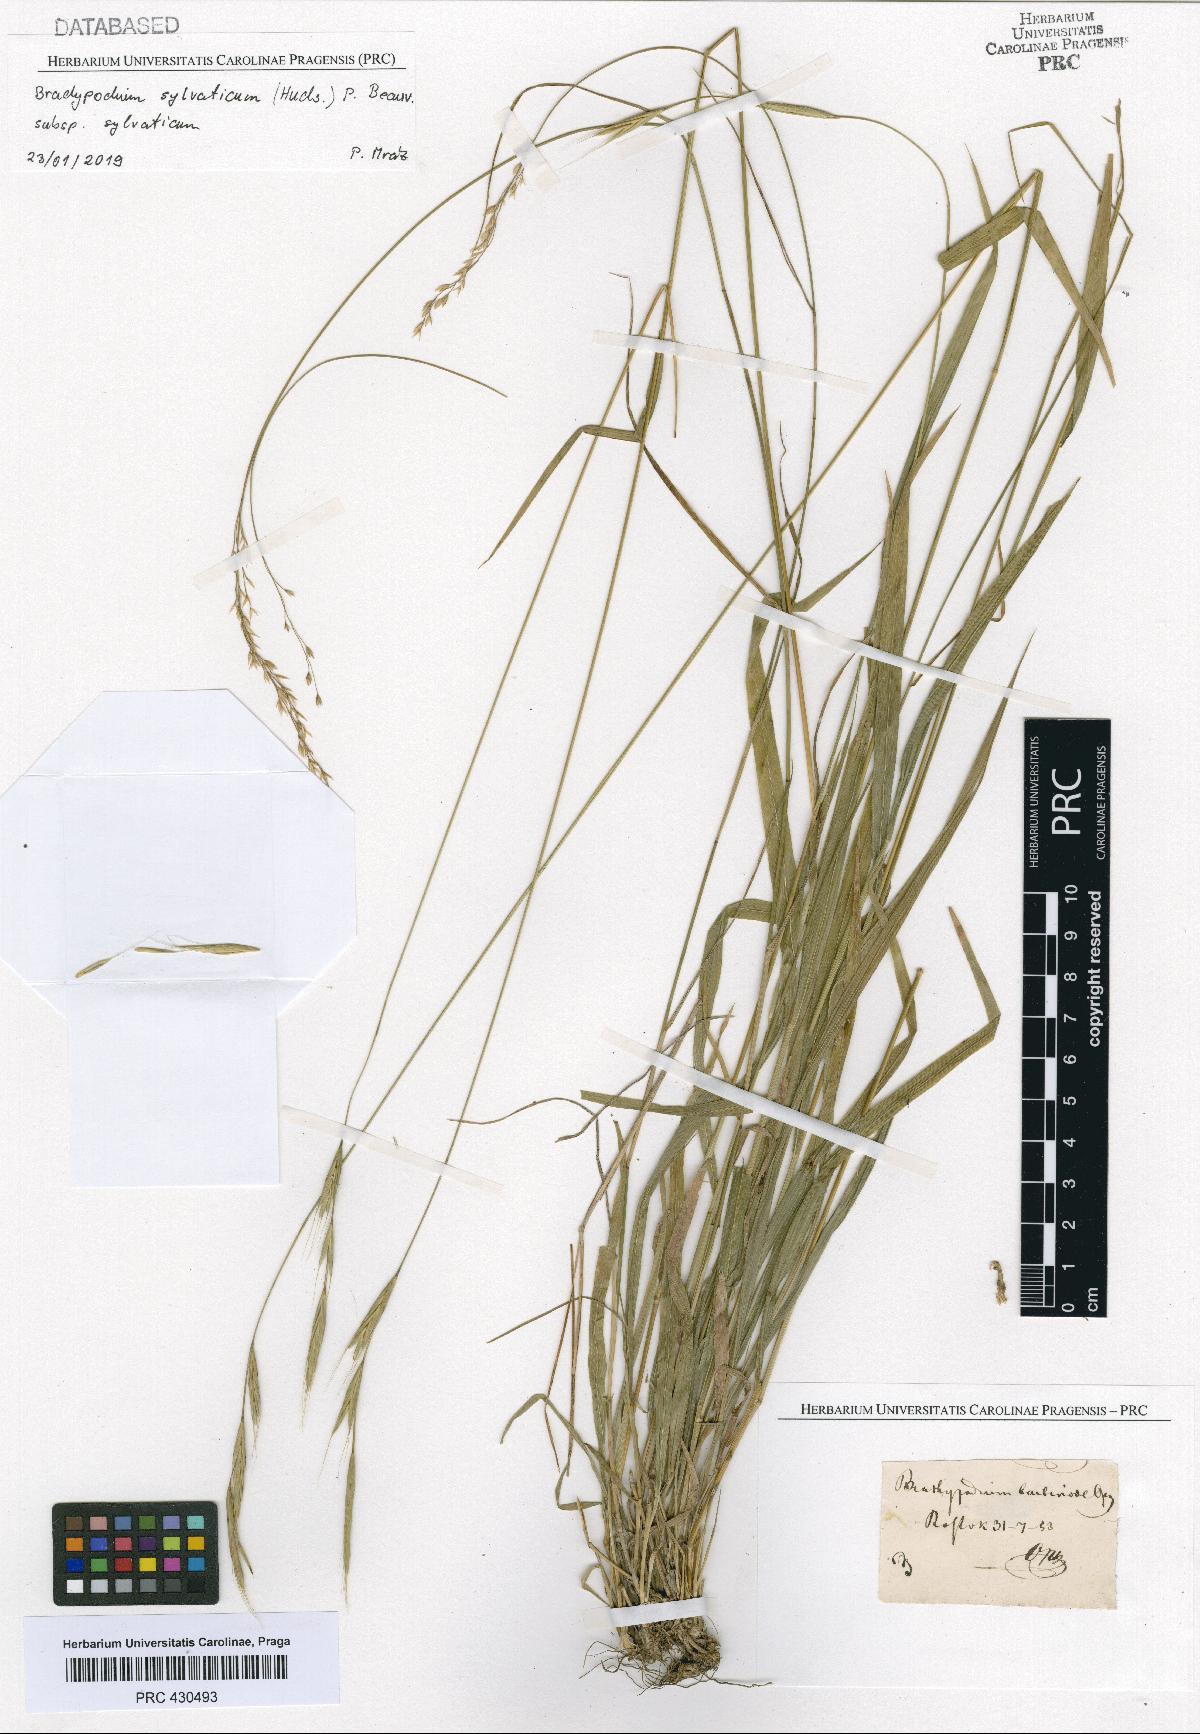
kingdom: Plantae
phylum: Tracheophyta
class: Liliopsida
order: Poales
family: Poaceae
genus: Brachypodium
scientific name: Brachypodium sylvaticum
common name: False-brome
